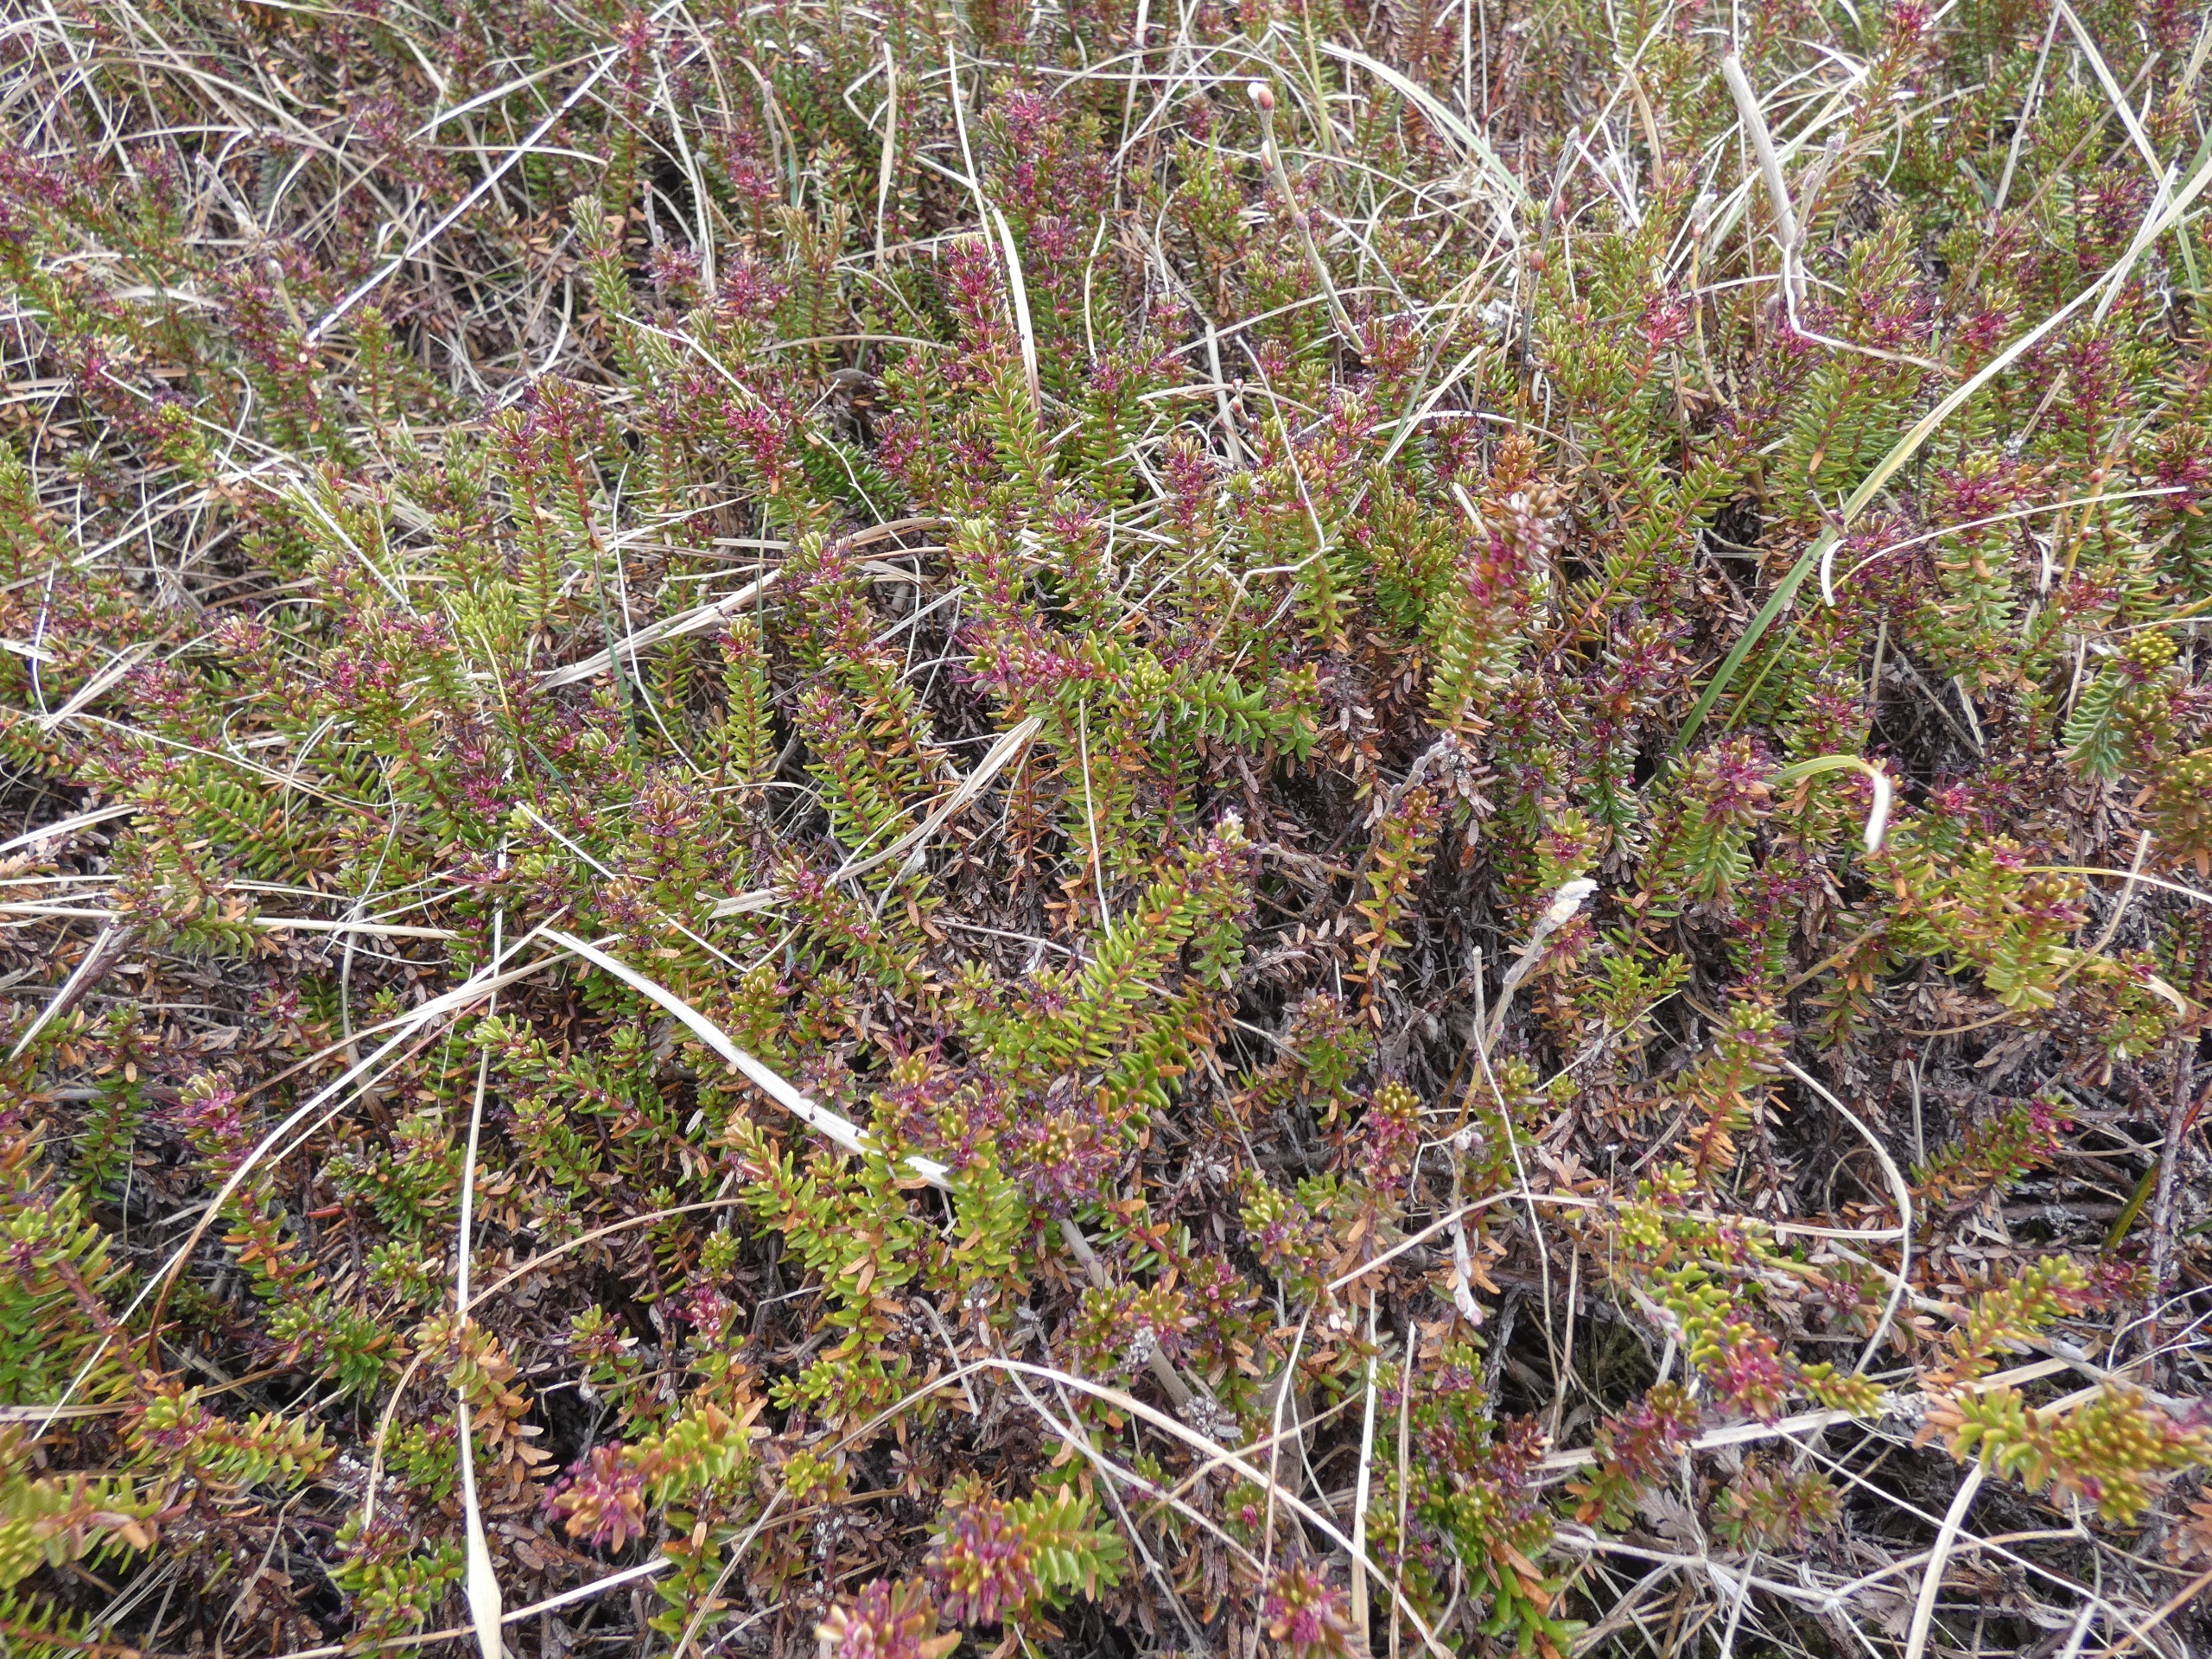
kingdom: Plantae
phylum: Tracheophyta
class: Magnoliopsida
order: Ericales
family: Ericaceae
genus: Empetrum
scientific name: Empetrum nigrum
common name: Revling
